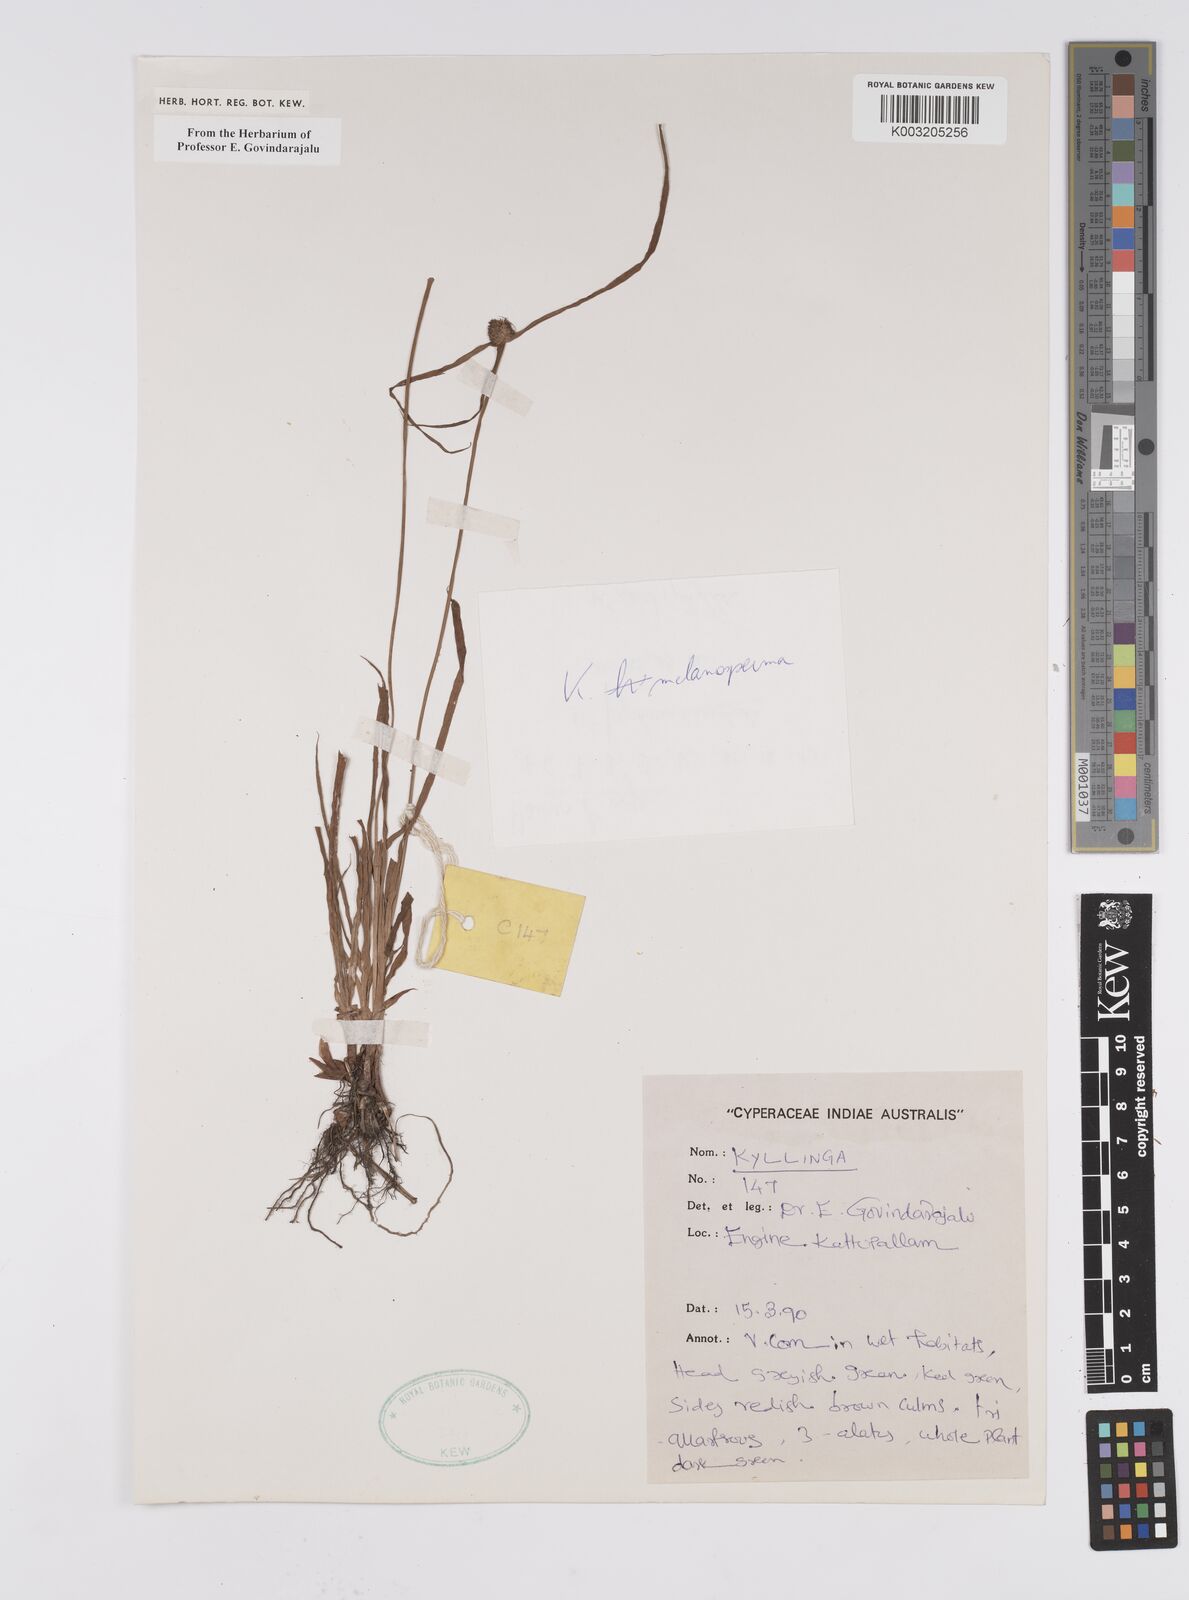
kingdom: Plantae
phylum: Tracheophyta
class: Liliopsida
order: Poales
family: Cyperaceae
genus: Cyperus
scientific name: Cyperus melanospermus
